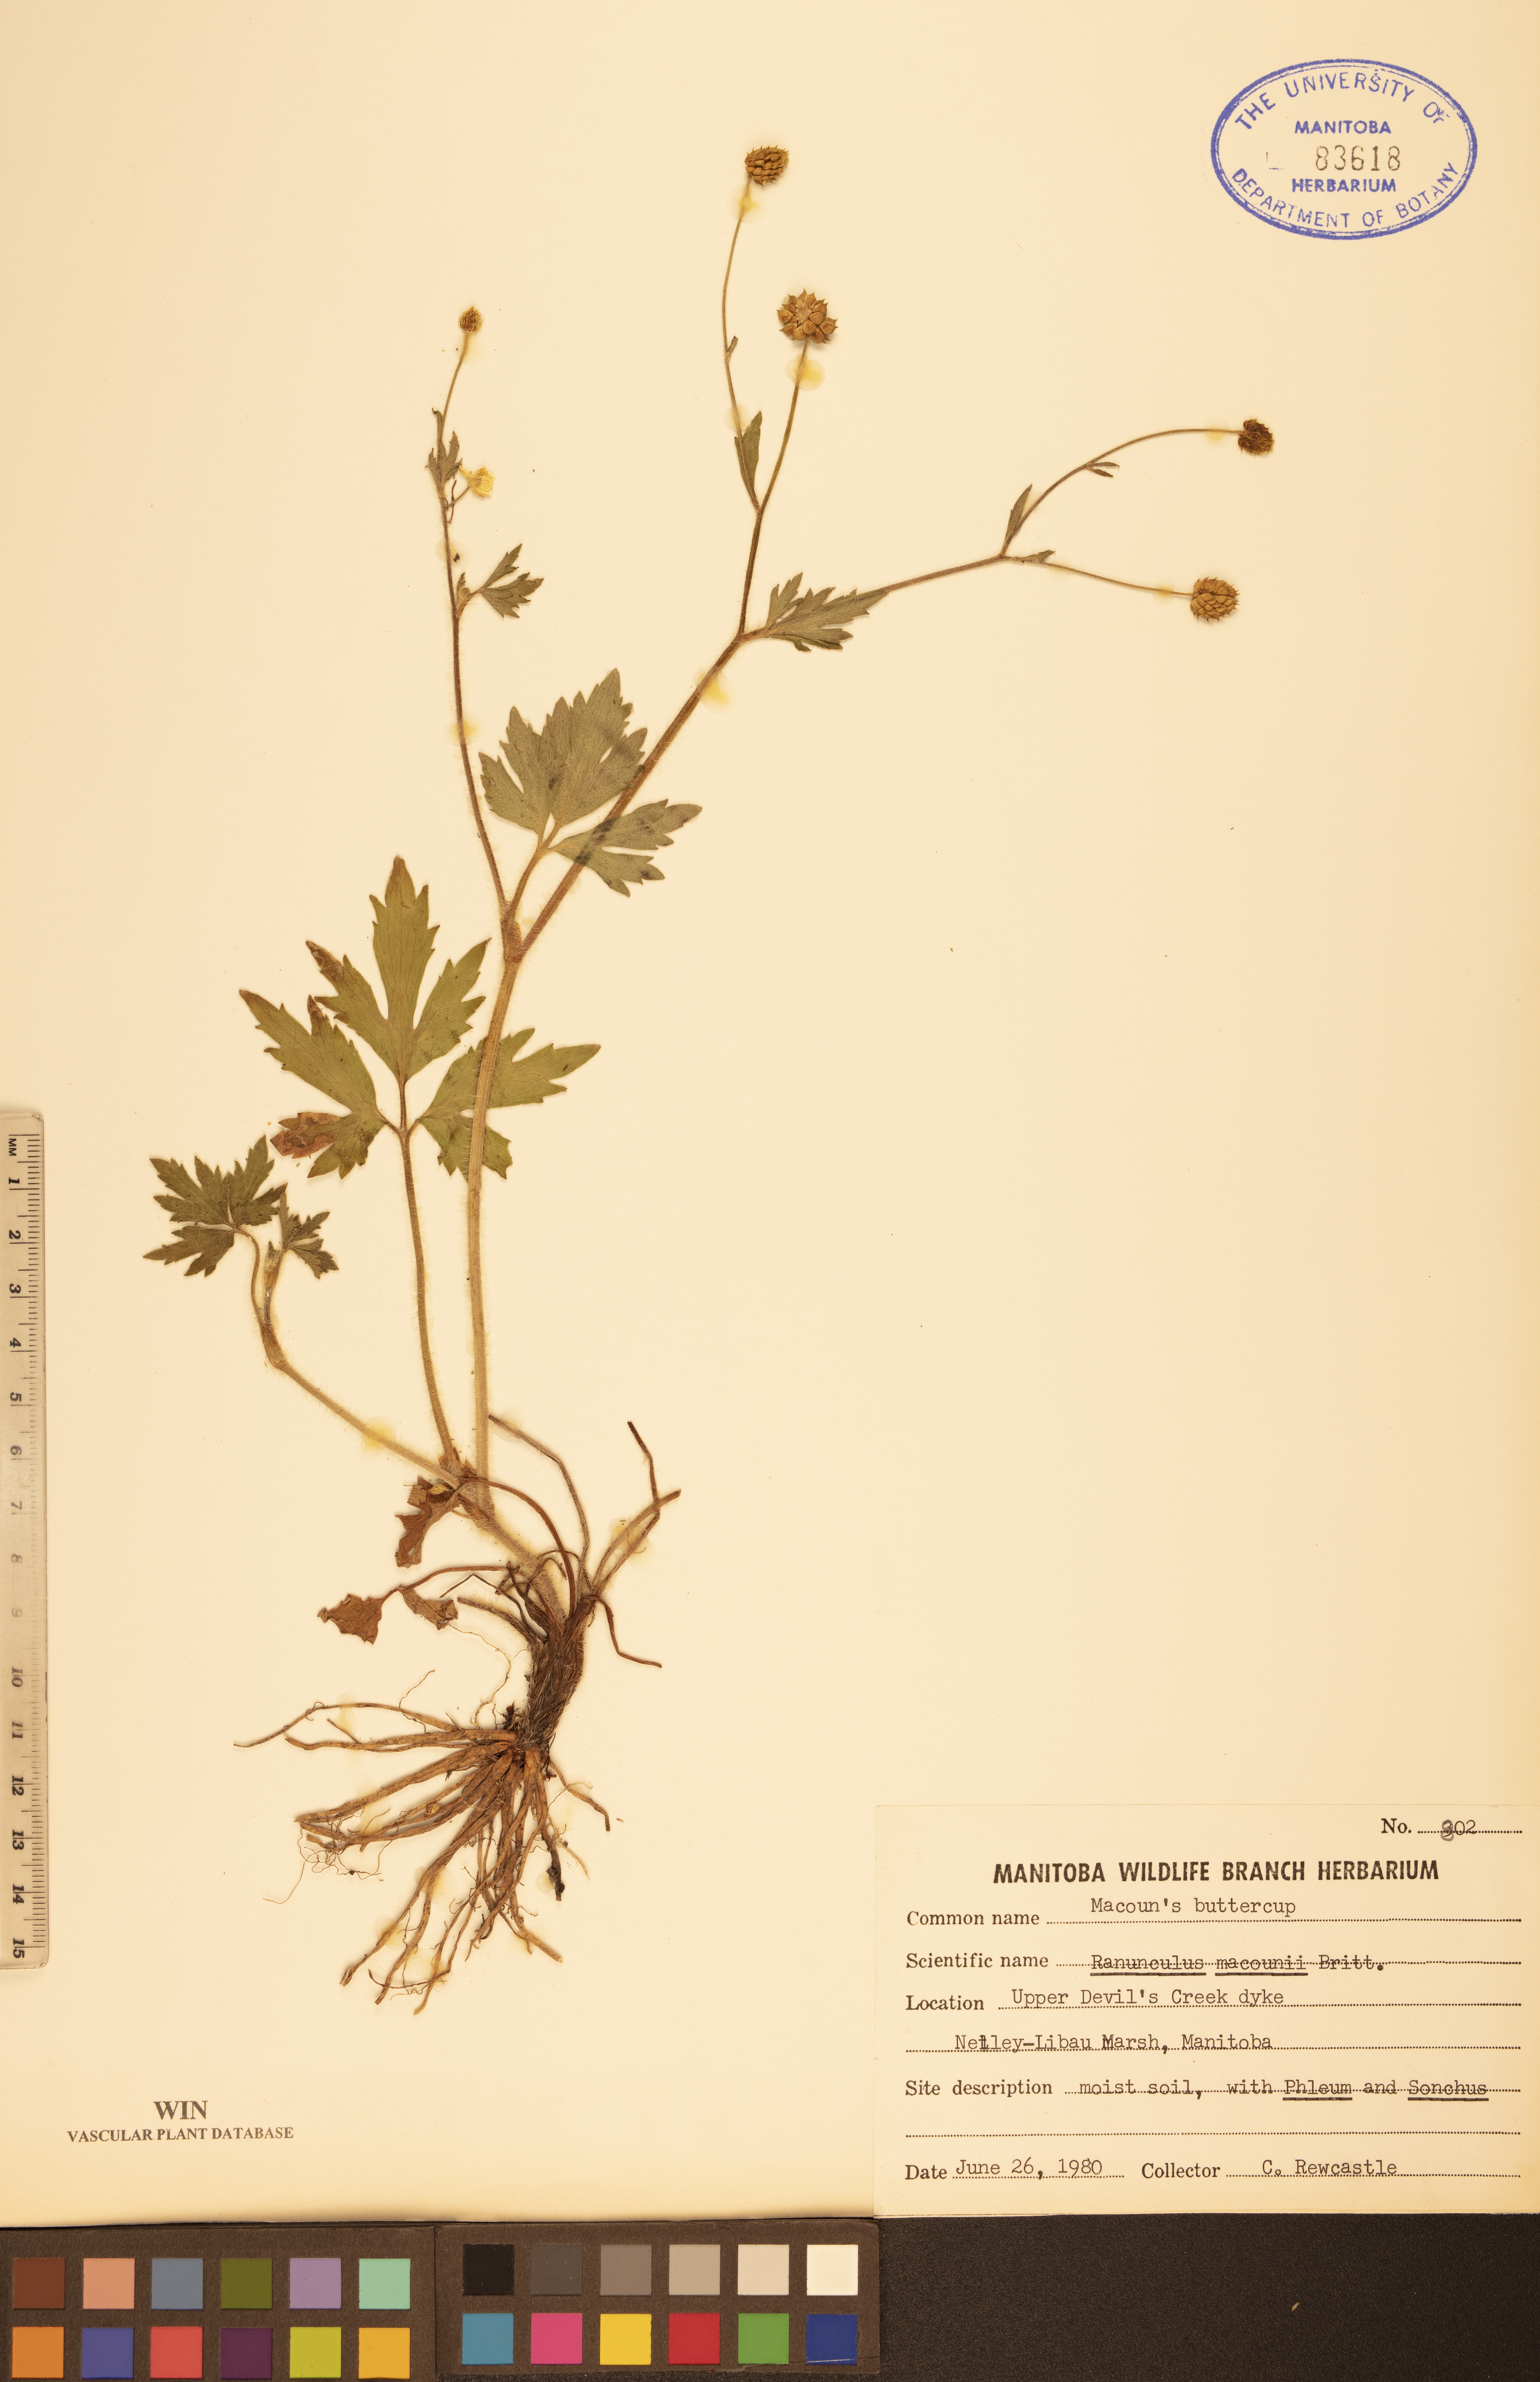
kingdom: Plantae
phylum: Tracheophyta
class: Magnoliopsida
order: Ranunculales
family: Ranunculaceae
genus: Ranunculus
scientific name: Ranunculus macounii
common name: Macoun's buttercup
